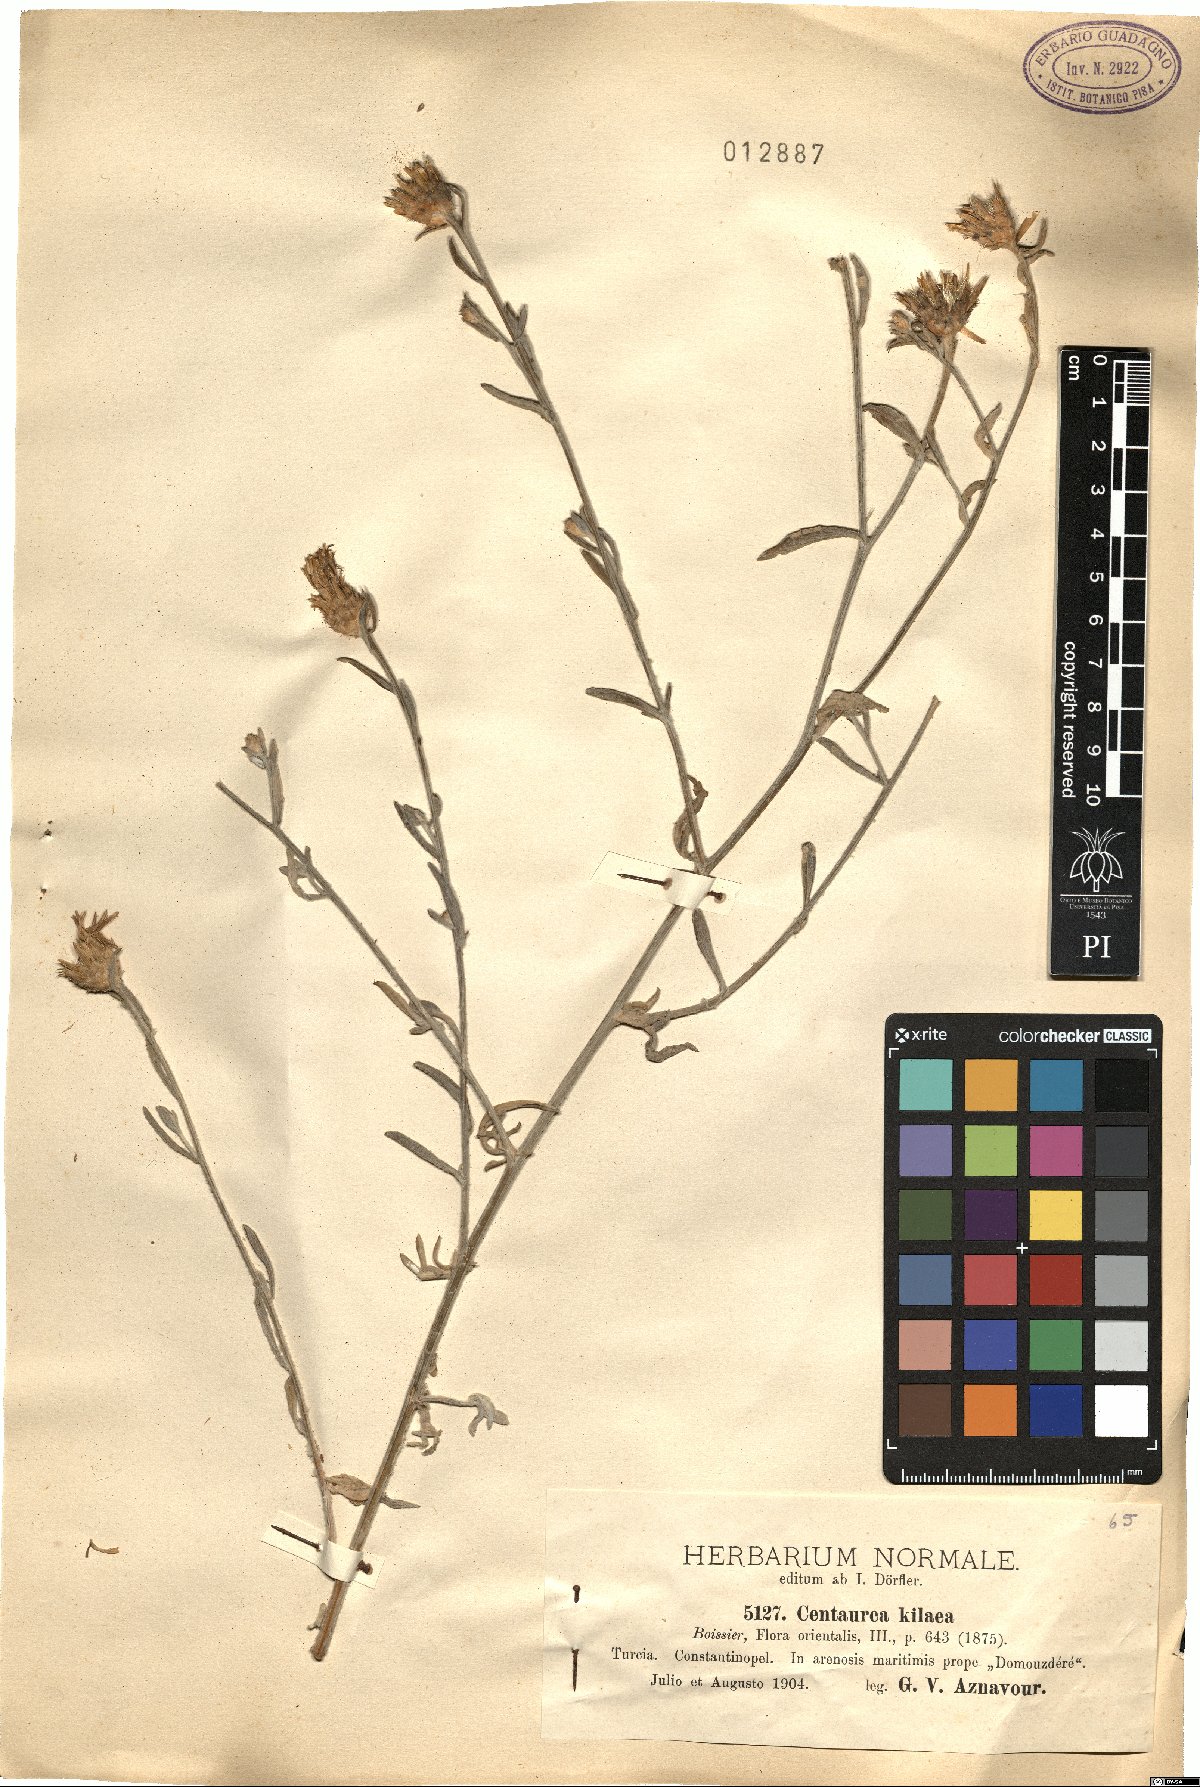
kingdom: Plantae
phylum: Tracheophyta
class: Magnoliopsida
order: Asterales
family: Asteraceae
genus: Centaurea
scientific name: Centaurea kilaea
